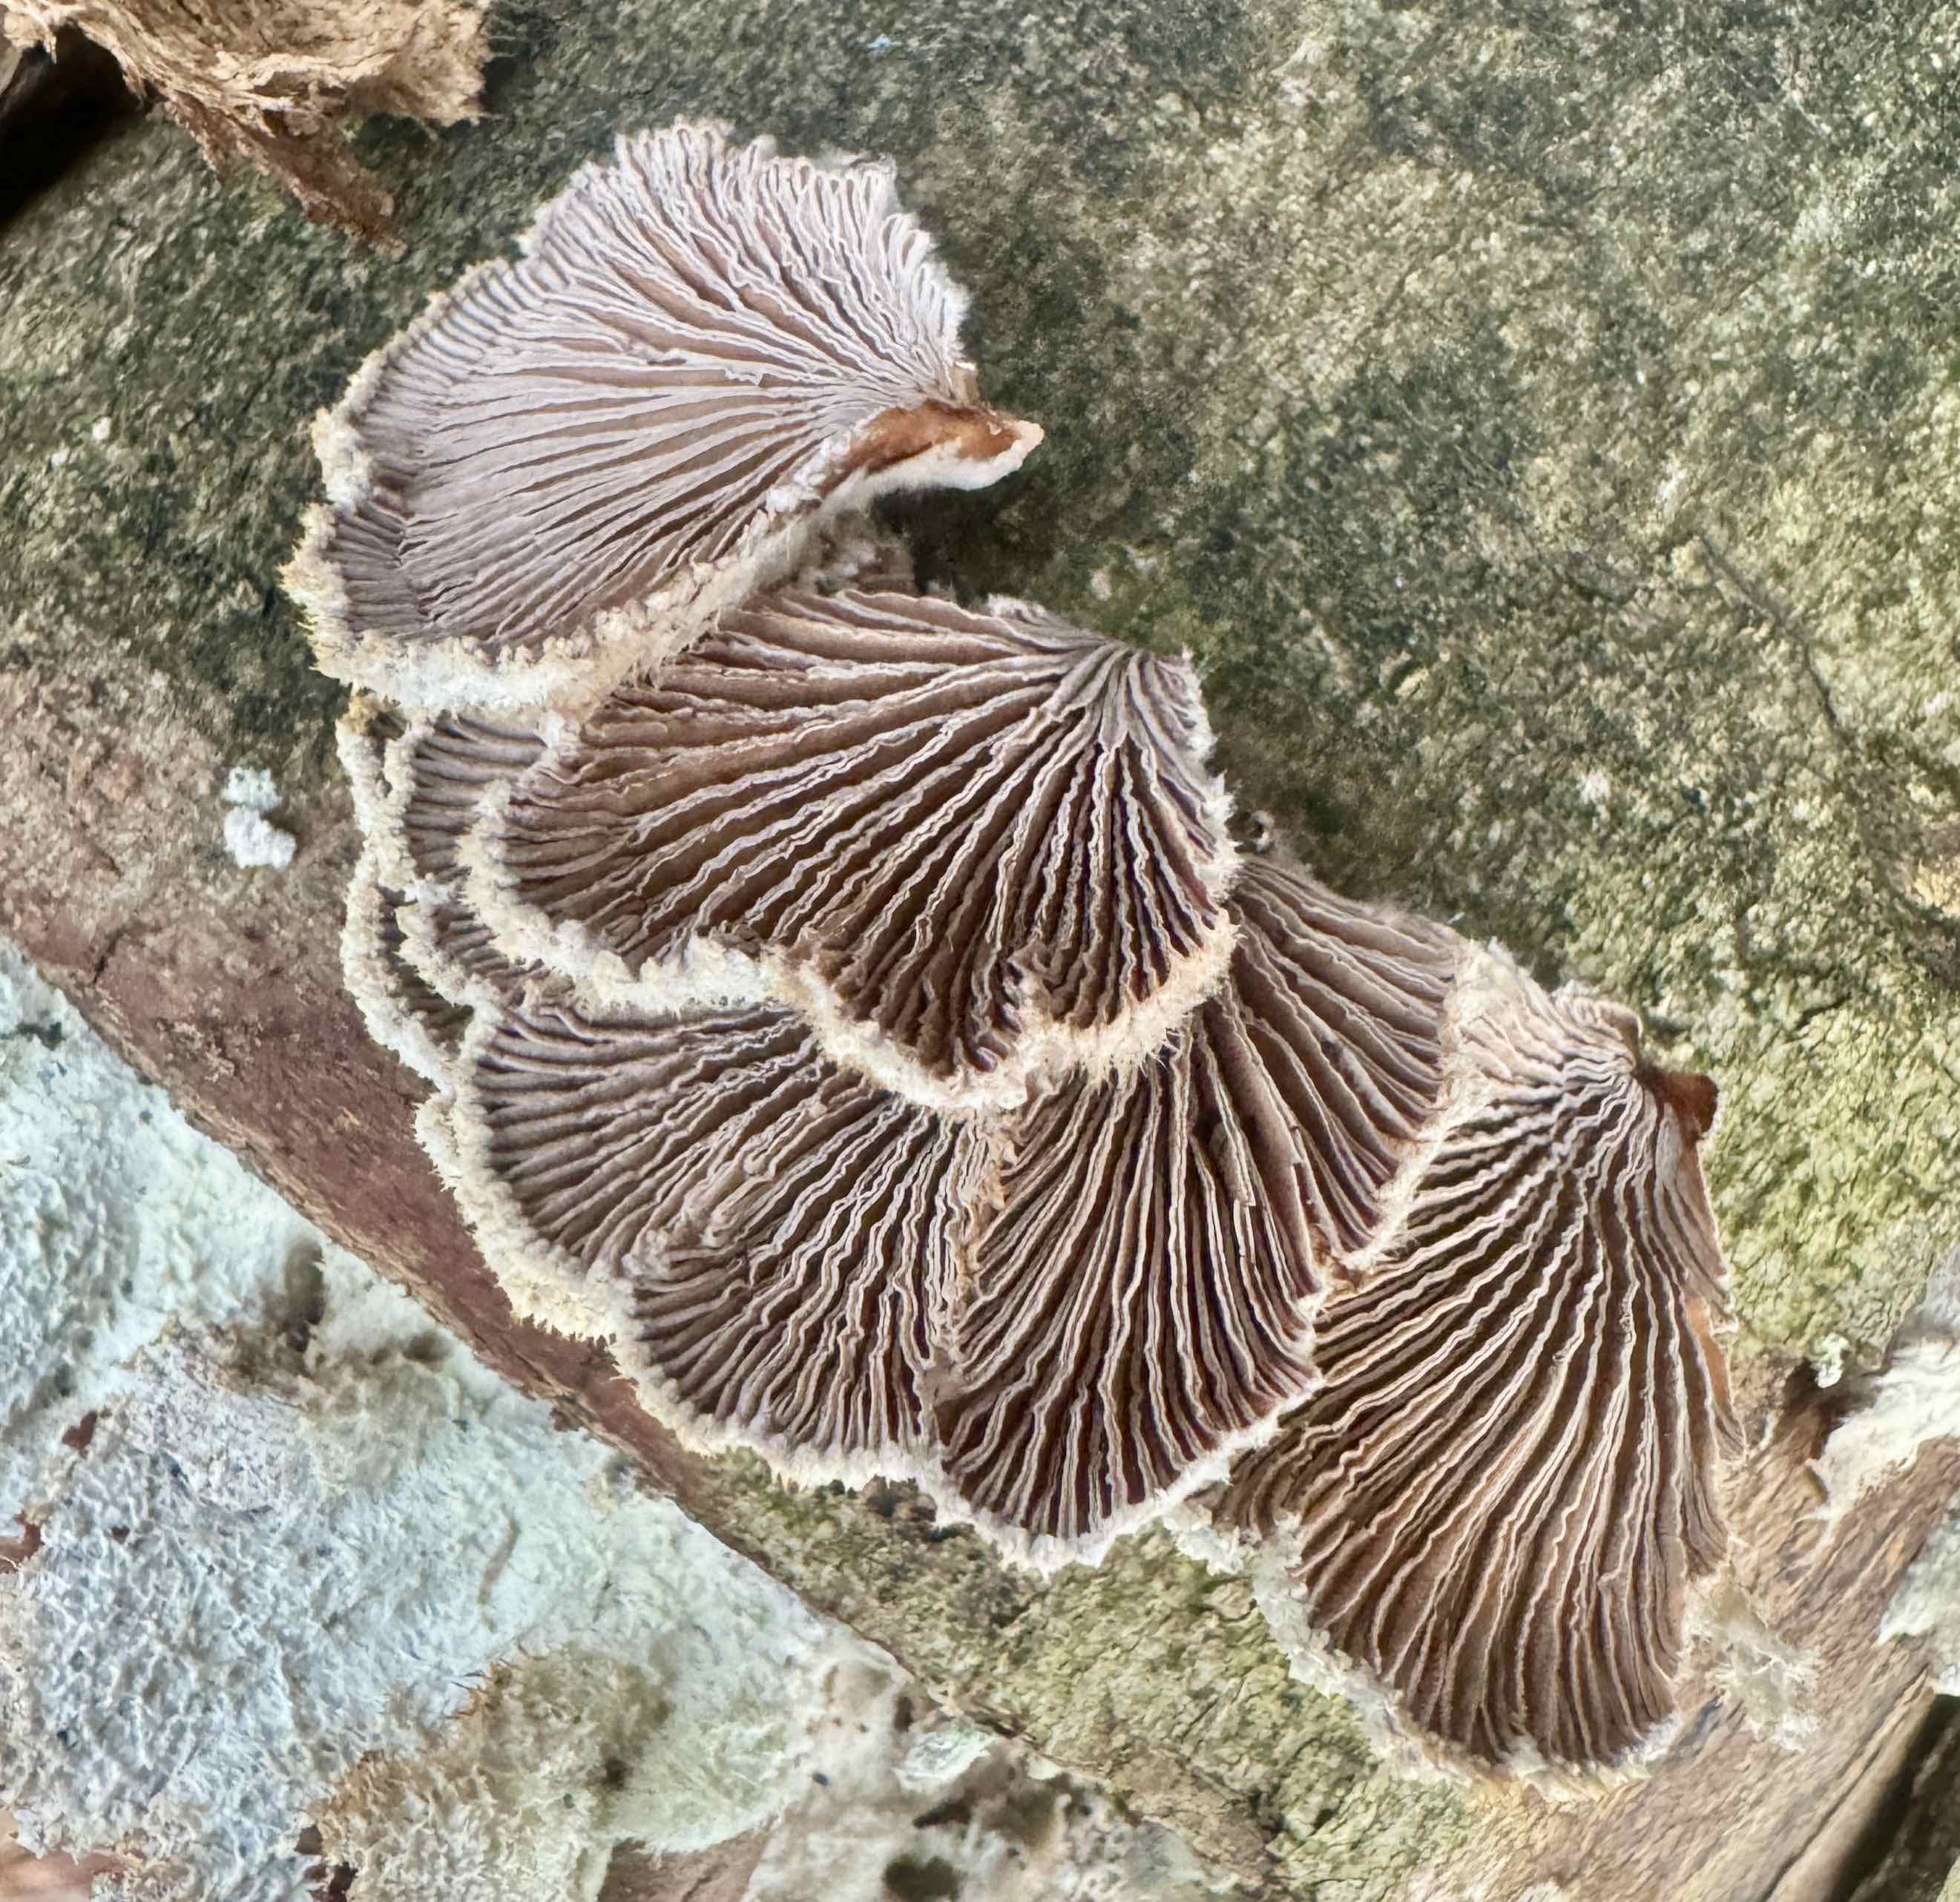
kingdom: Fungi
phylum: Basidiomycota
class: Agaricomycetes
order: Agaricales
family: Schizophyllaceae
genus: Schizophyllum
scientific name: Schizophyllum commune
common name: kløvblad
